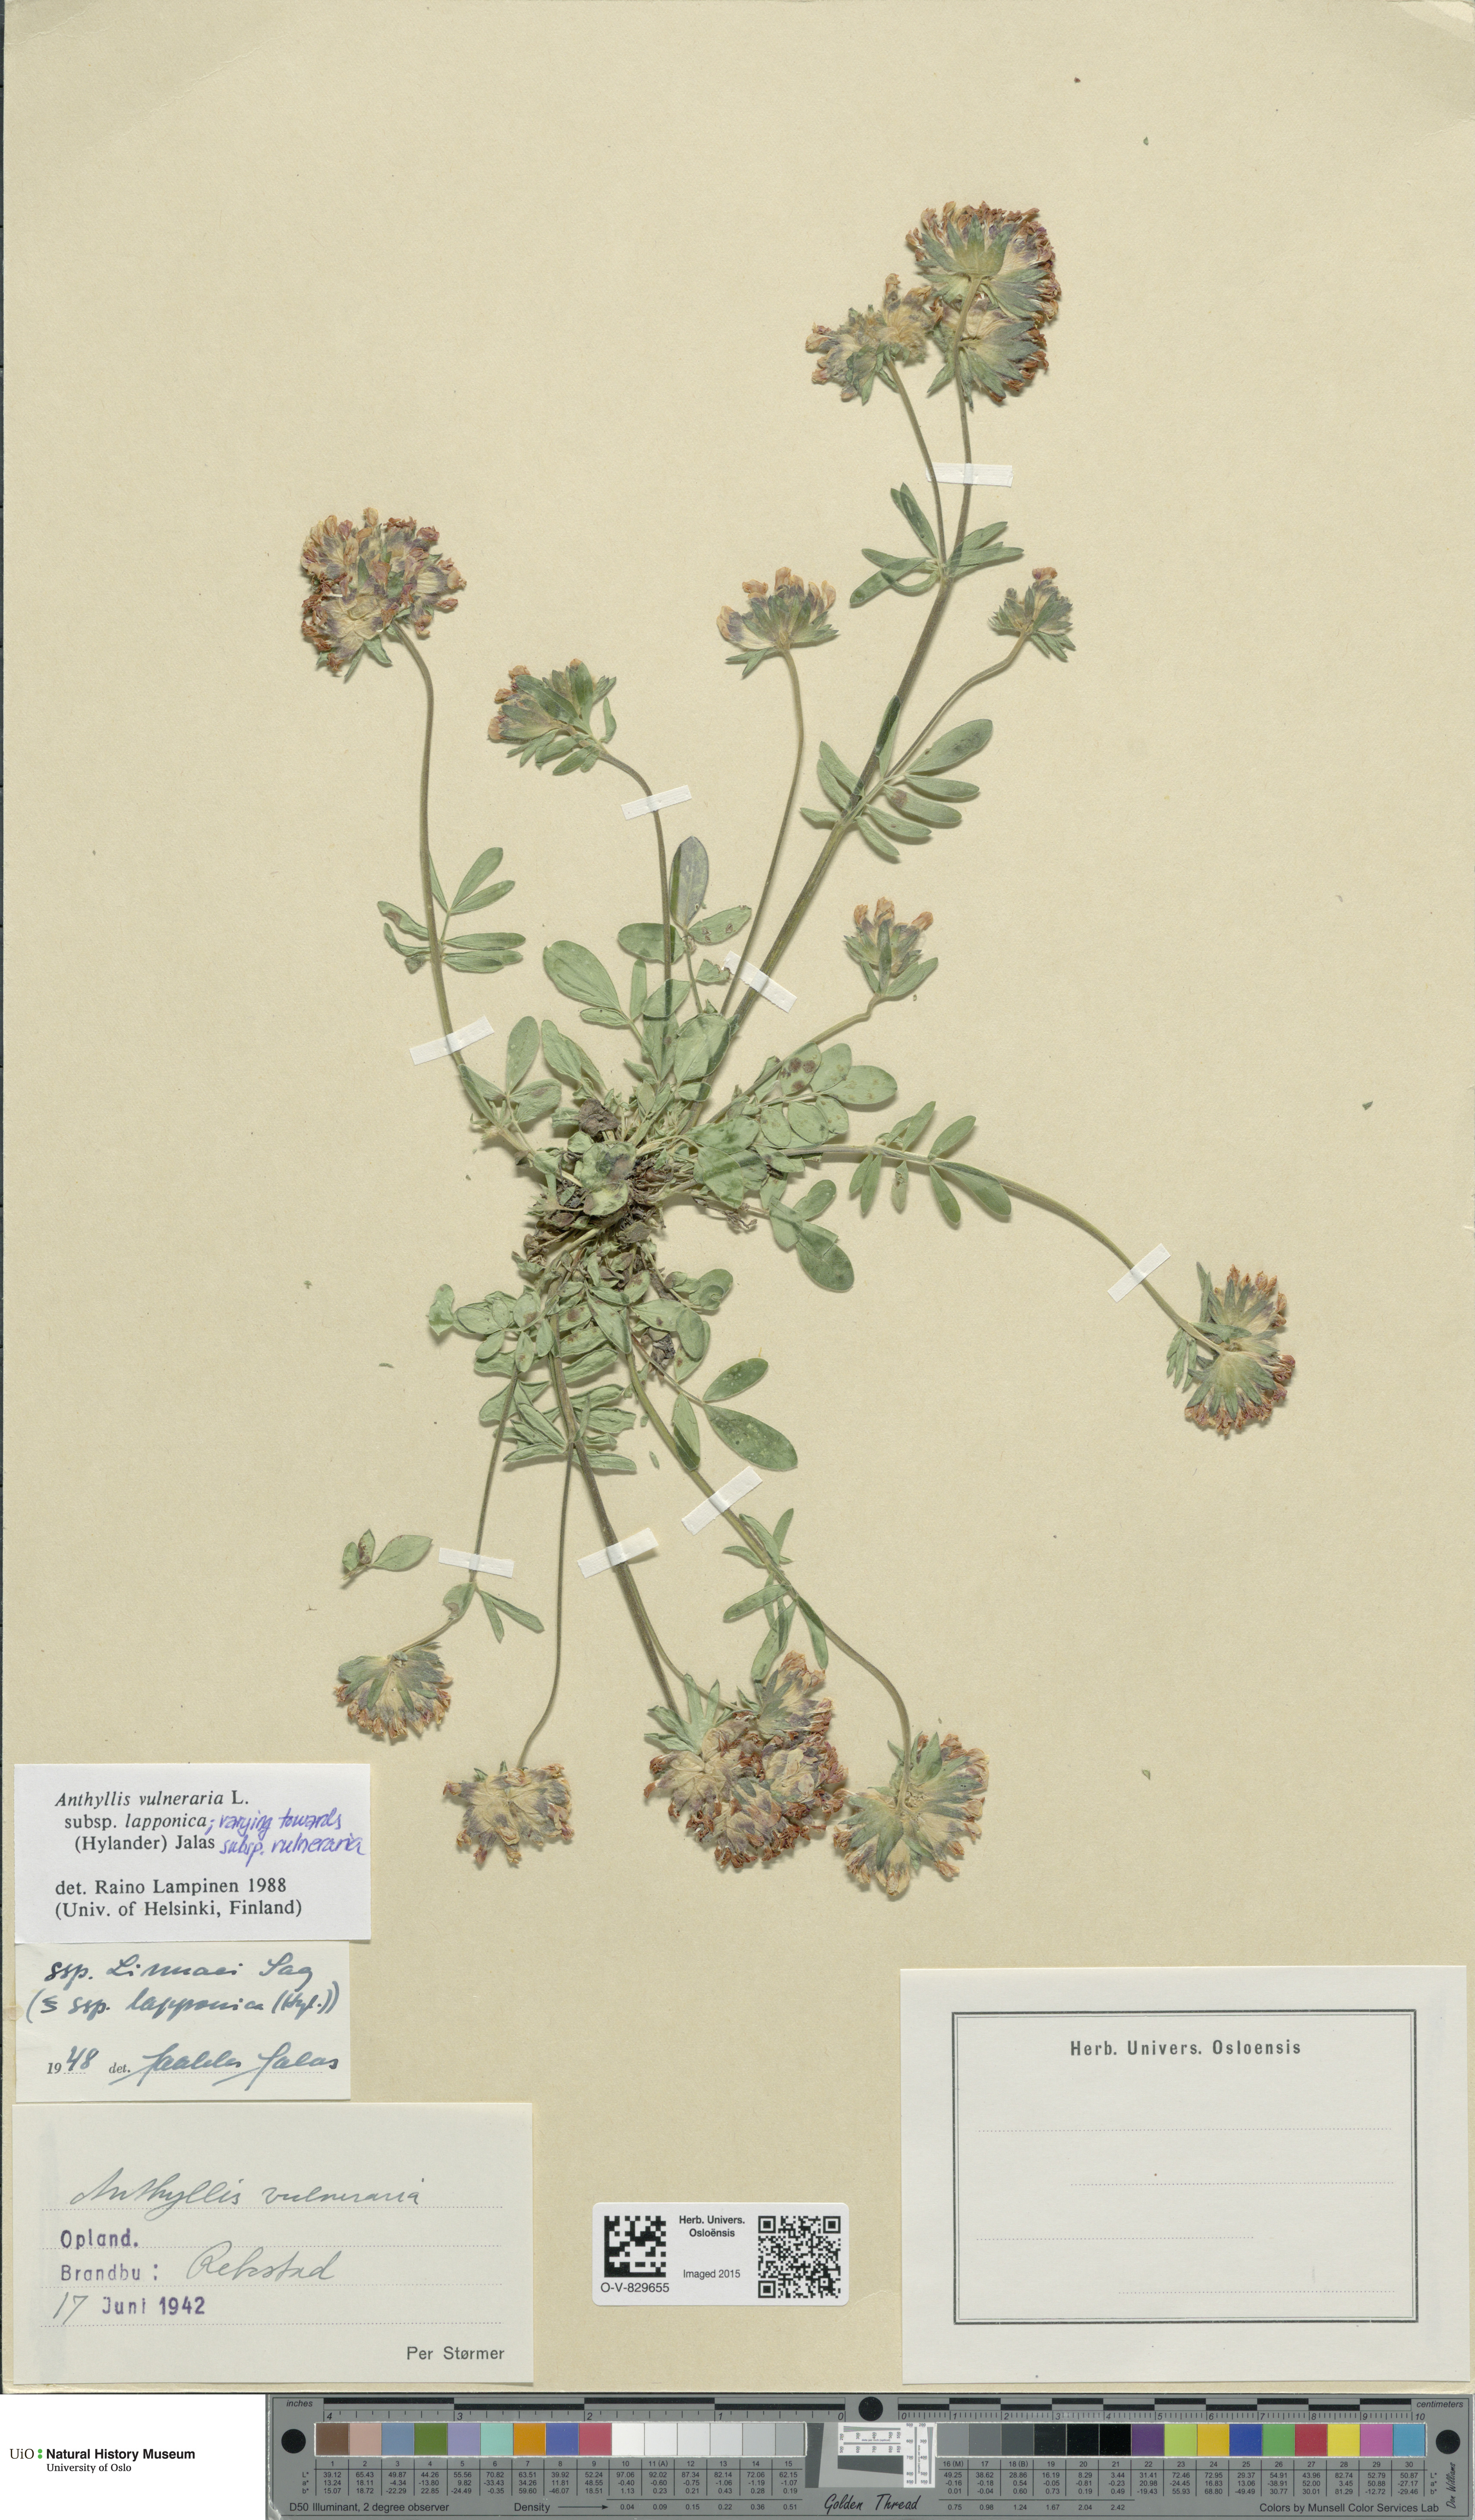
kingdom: Plantae
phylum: Tracheophyta
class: Magnoliopsida
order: Fabales
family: Fabaceae
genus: Anthyllis
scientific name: Anthyllis vulneraria
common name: Kidney vetch
